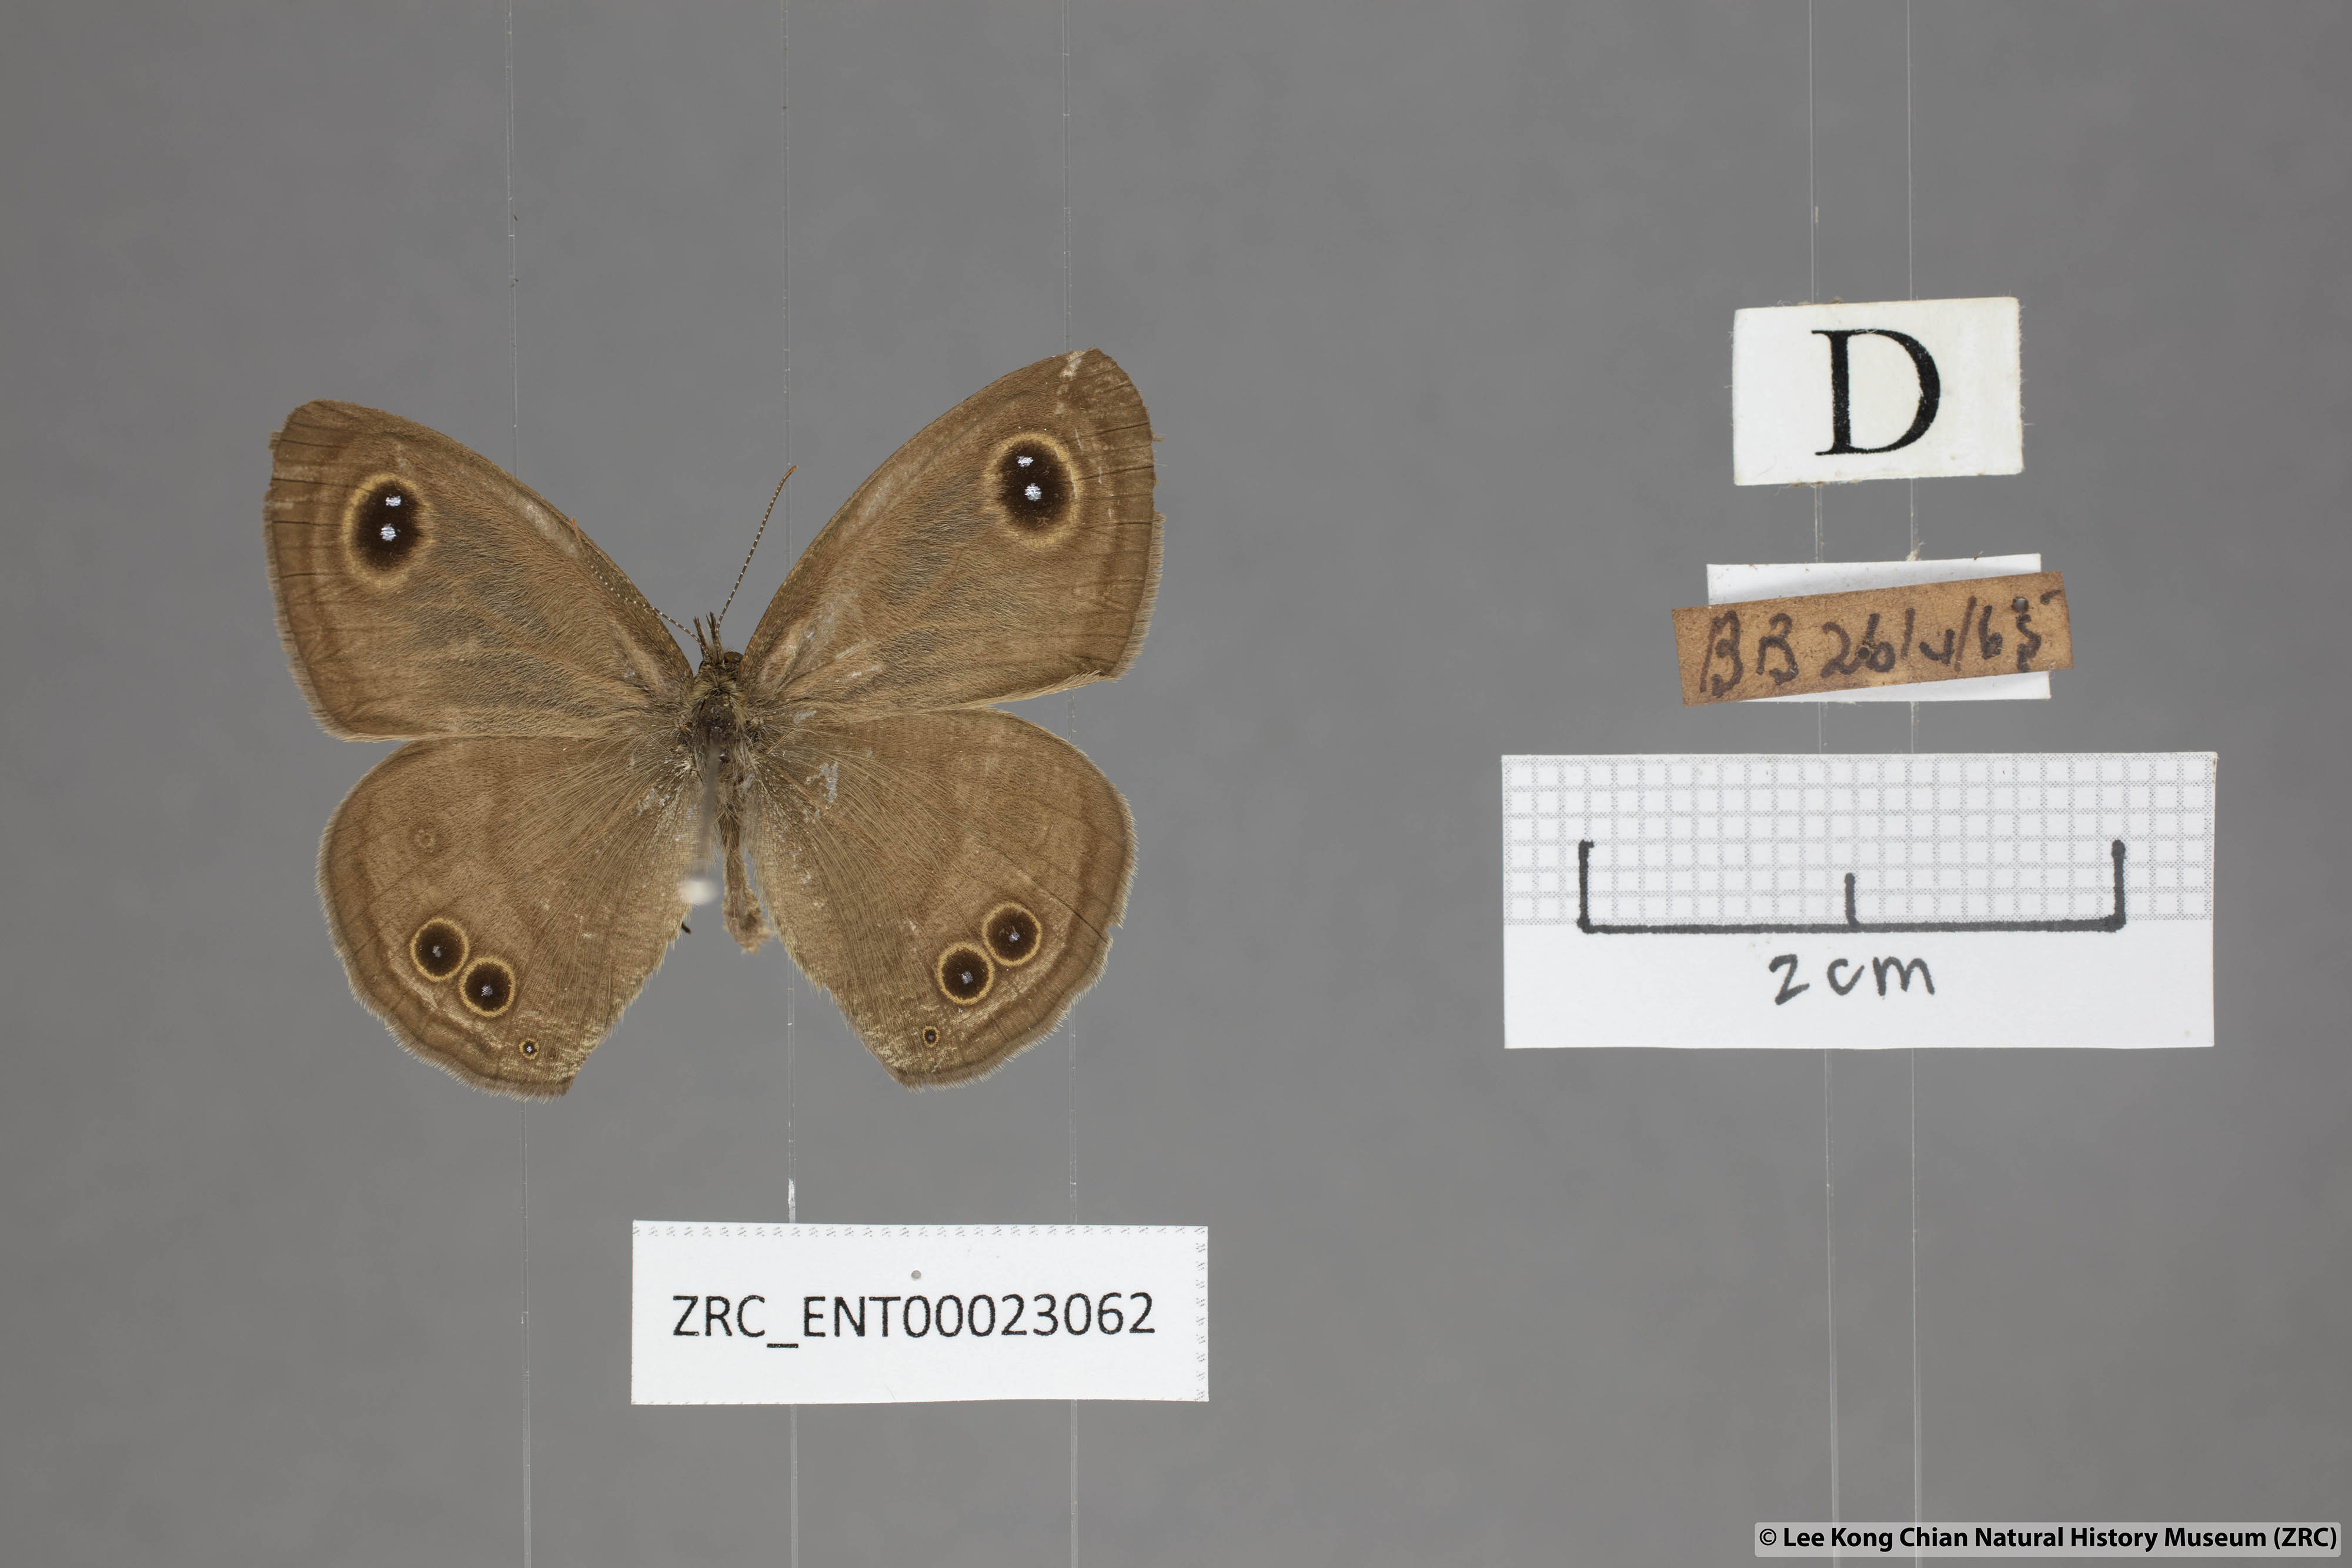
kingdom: Animalia
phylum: Arthropoda
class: Insecta
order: Lepidoptera
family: Nymphalidae
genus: Ypthima
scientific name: Ypthima baldus
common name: Common five-ring
